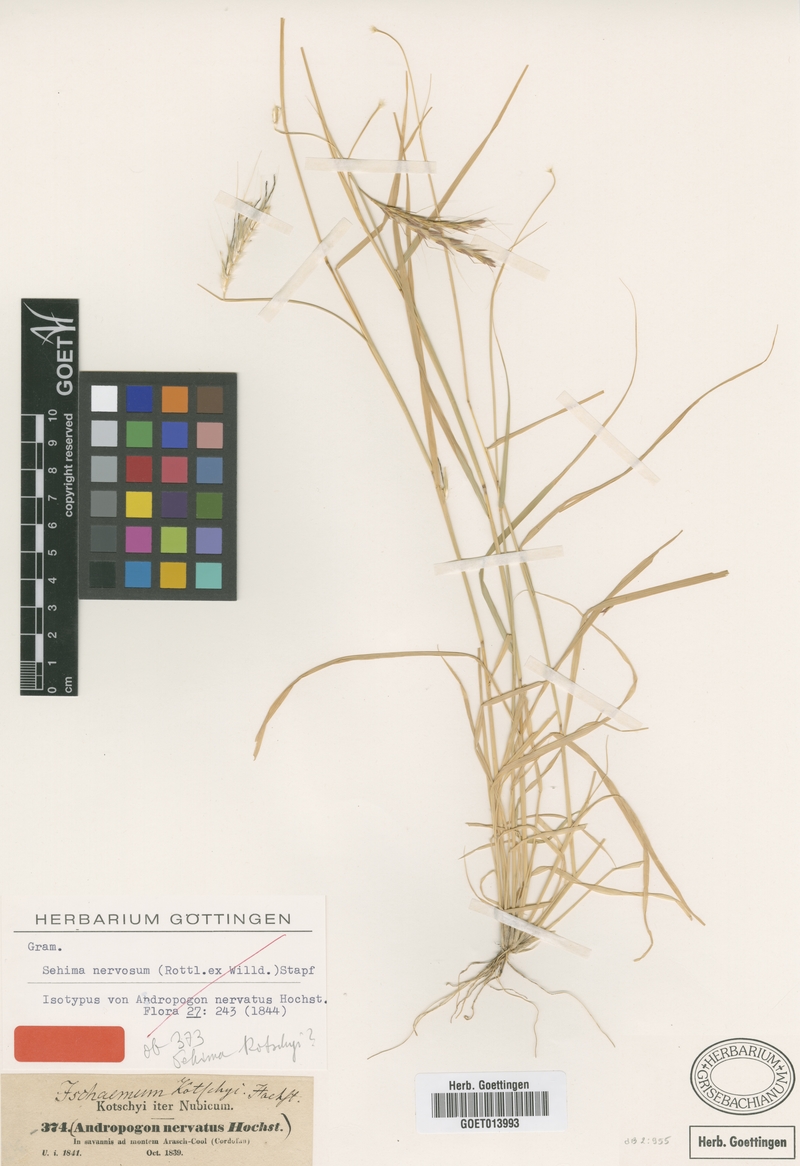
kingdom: Plantae
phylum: Tracheophyta
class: Liliopsida
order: Poales
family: Poaceae
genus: Cymbopogon
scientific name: Cymbopogon nervatus
